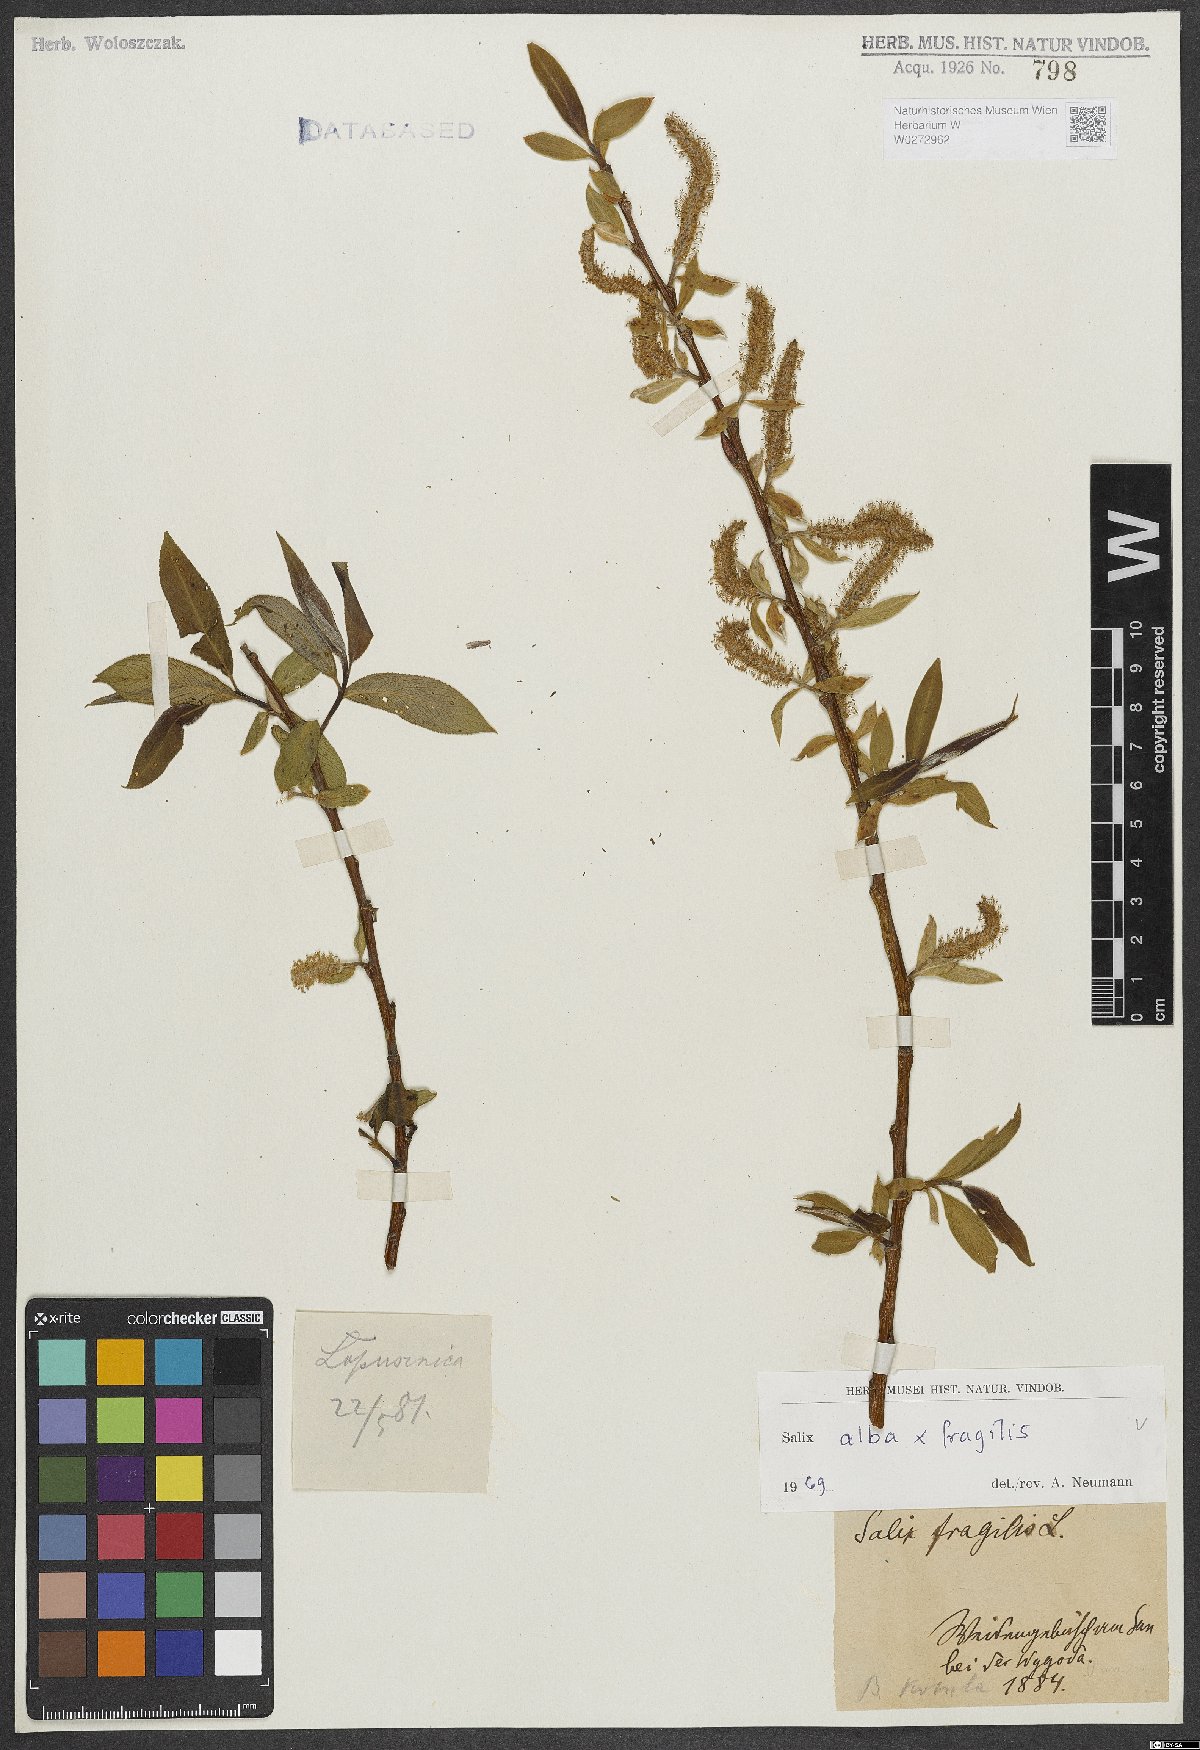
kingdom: Plantae
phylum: Tracheophyta
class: Magnoliopsida
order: Malpighiales
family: Salicaceae
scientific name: Salicaceae
